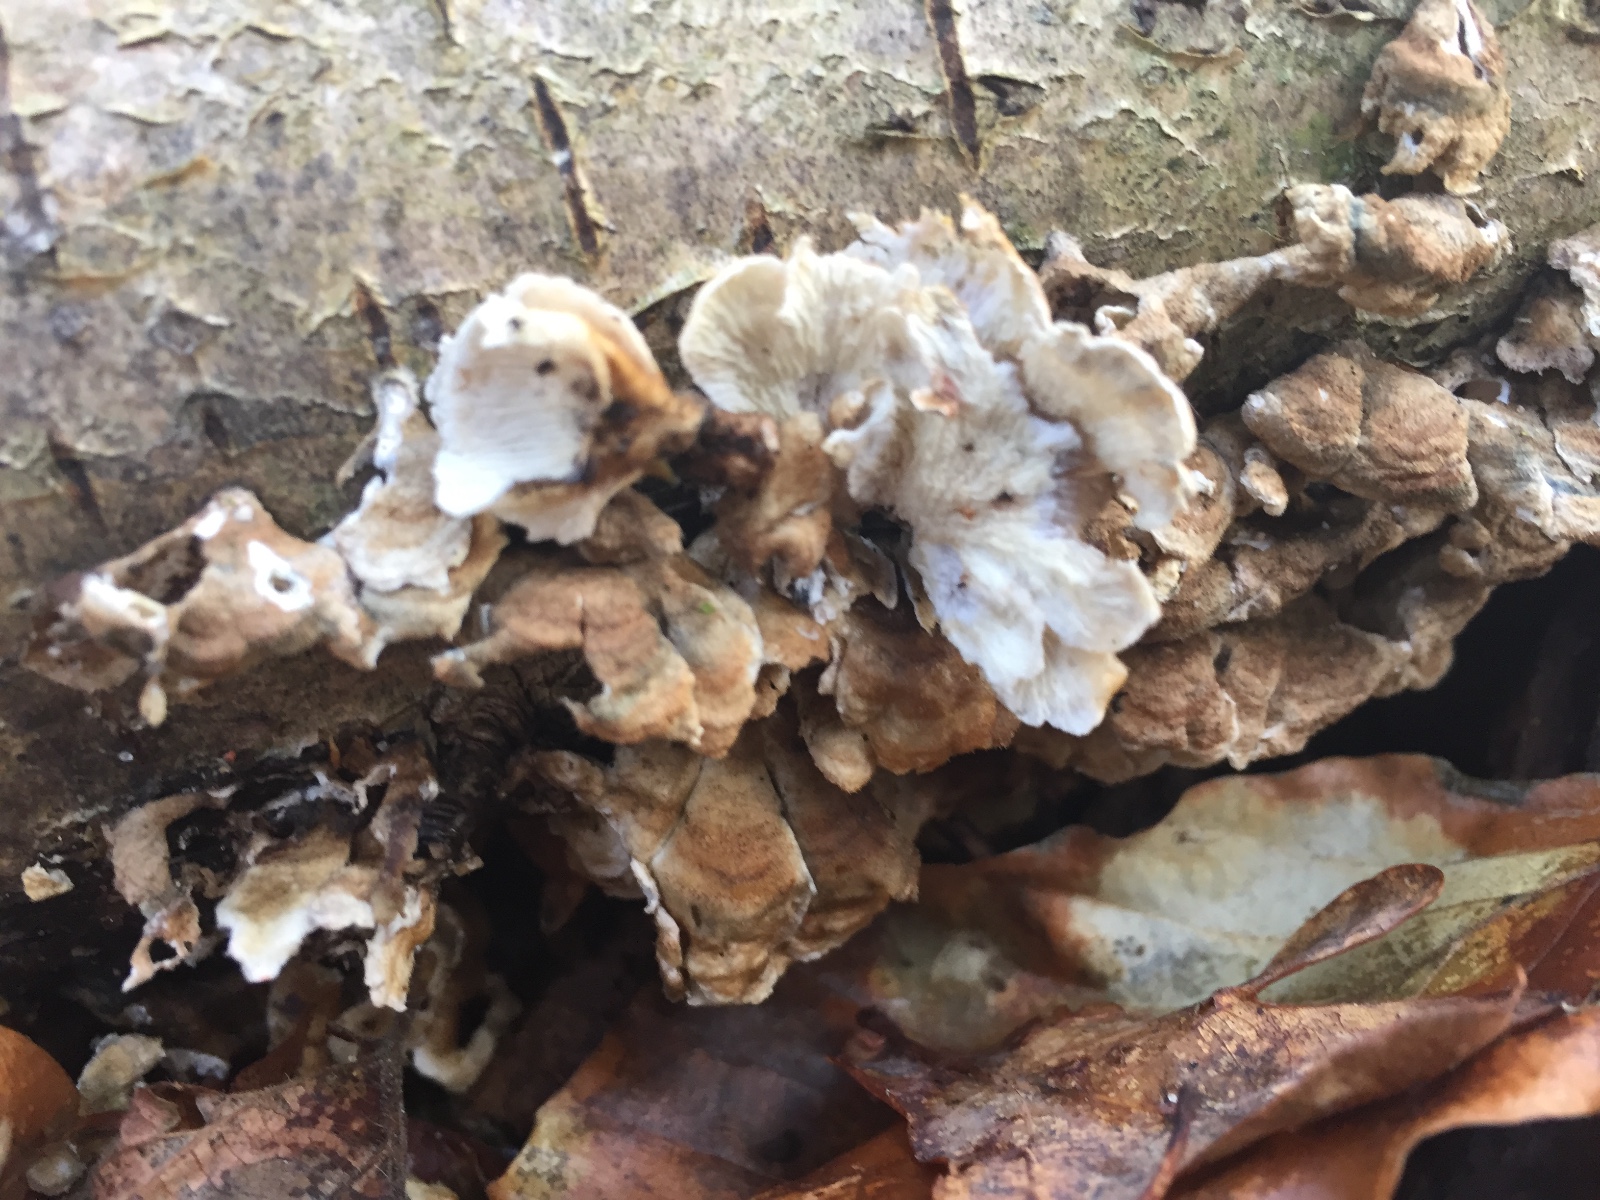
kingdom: Fungi
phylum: Basidiomycota
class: Agaricomycetes
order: Amylocorticiales
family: Amylocorticiaceae
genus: Plicaturopsis
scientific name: Plicaturopsis crispa
